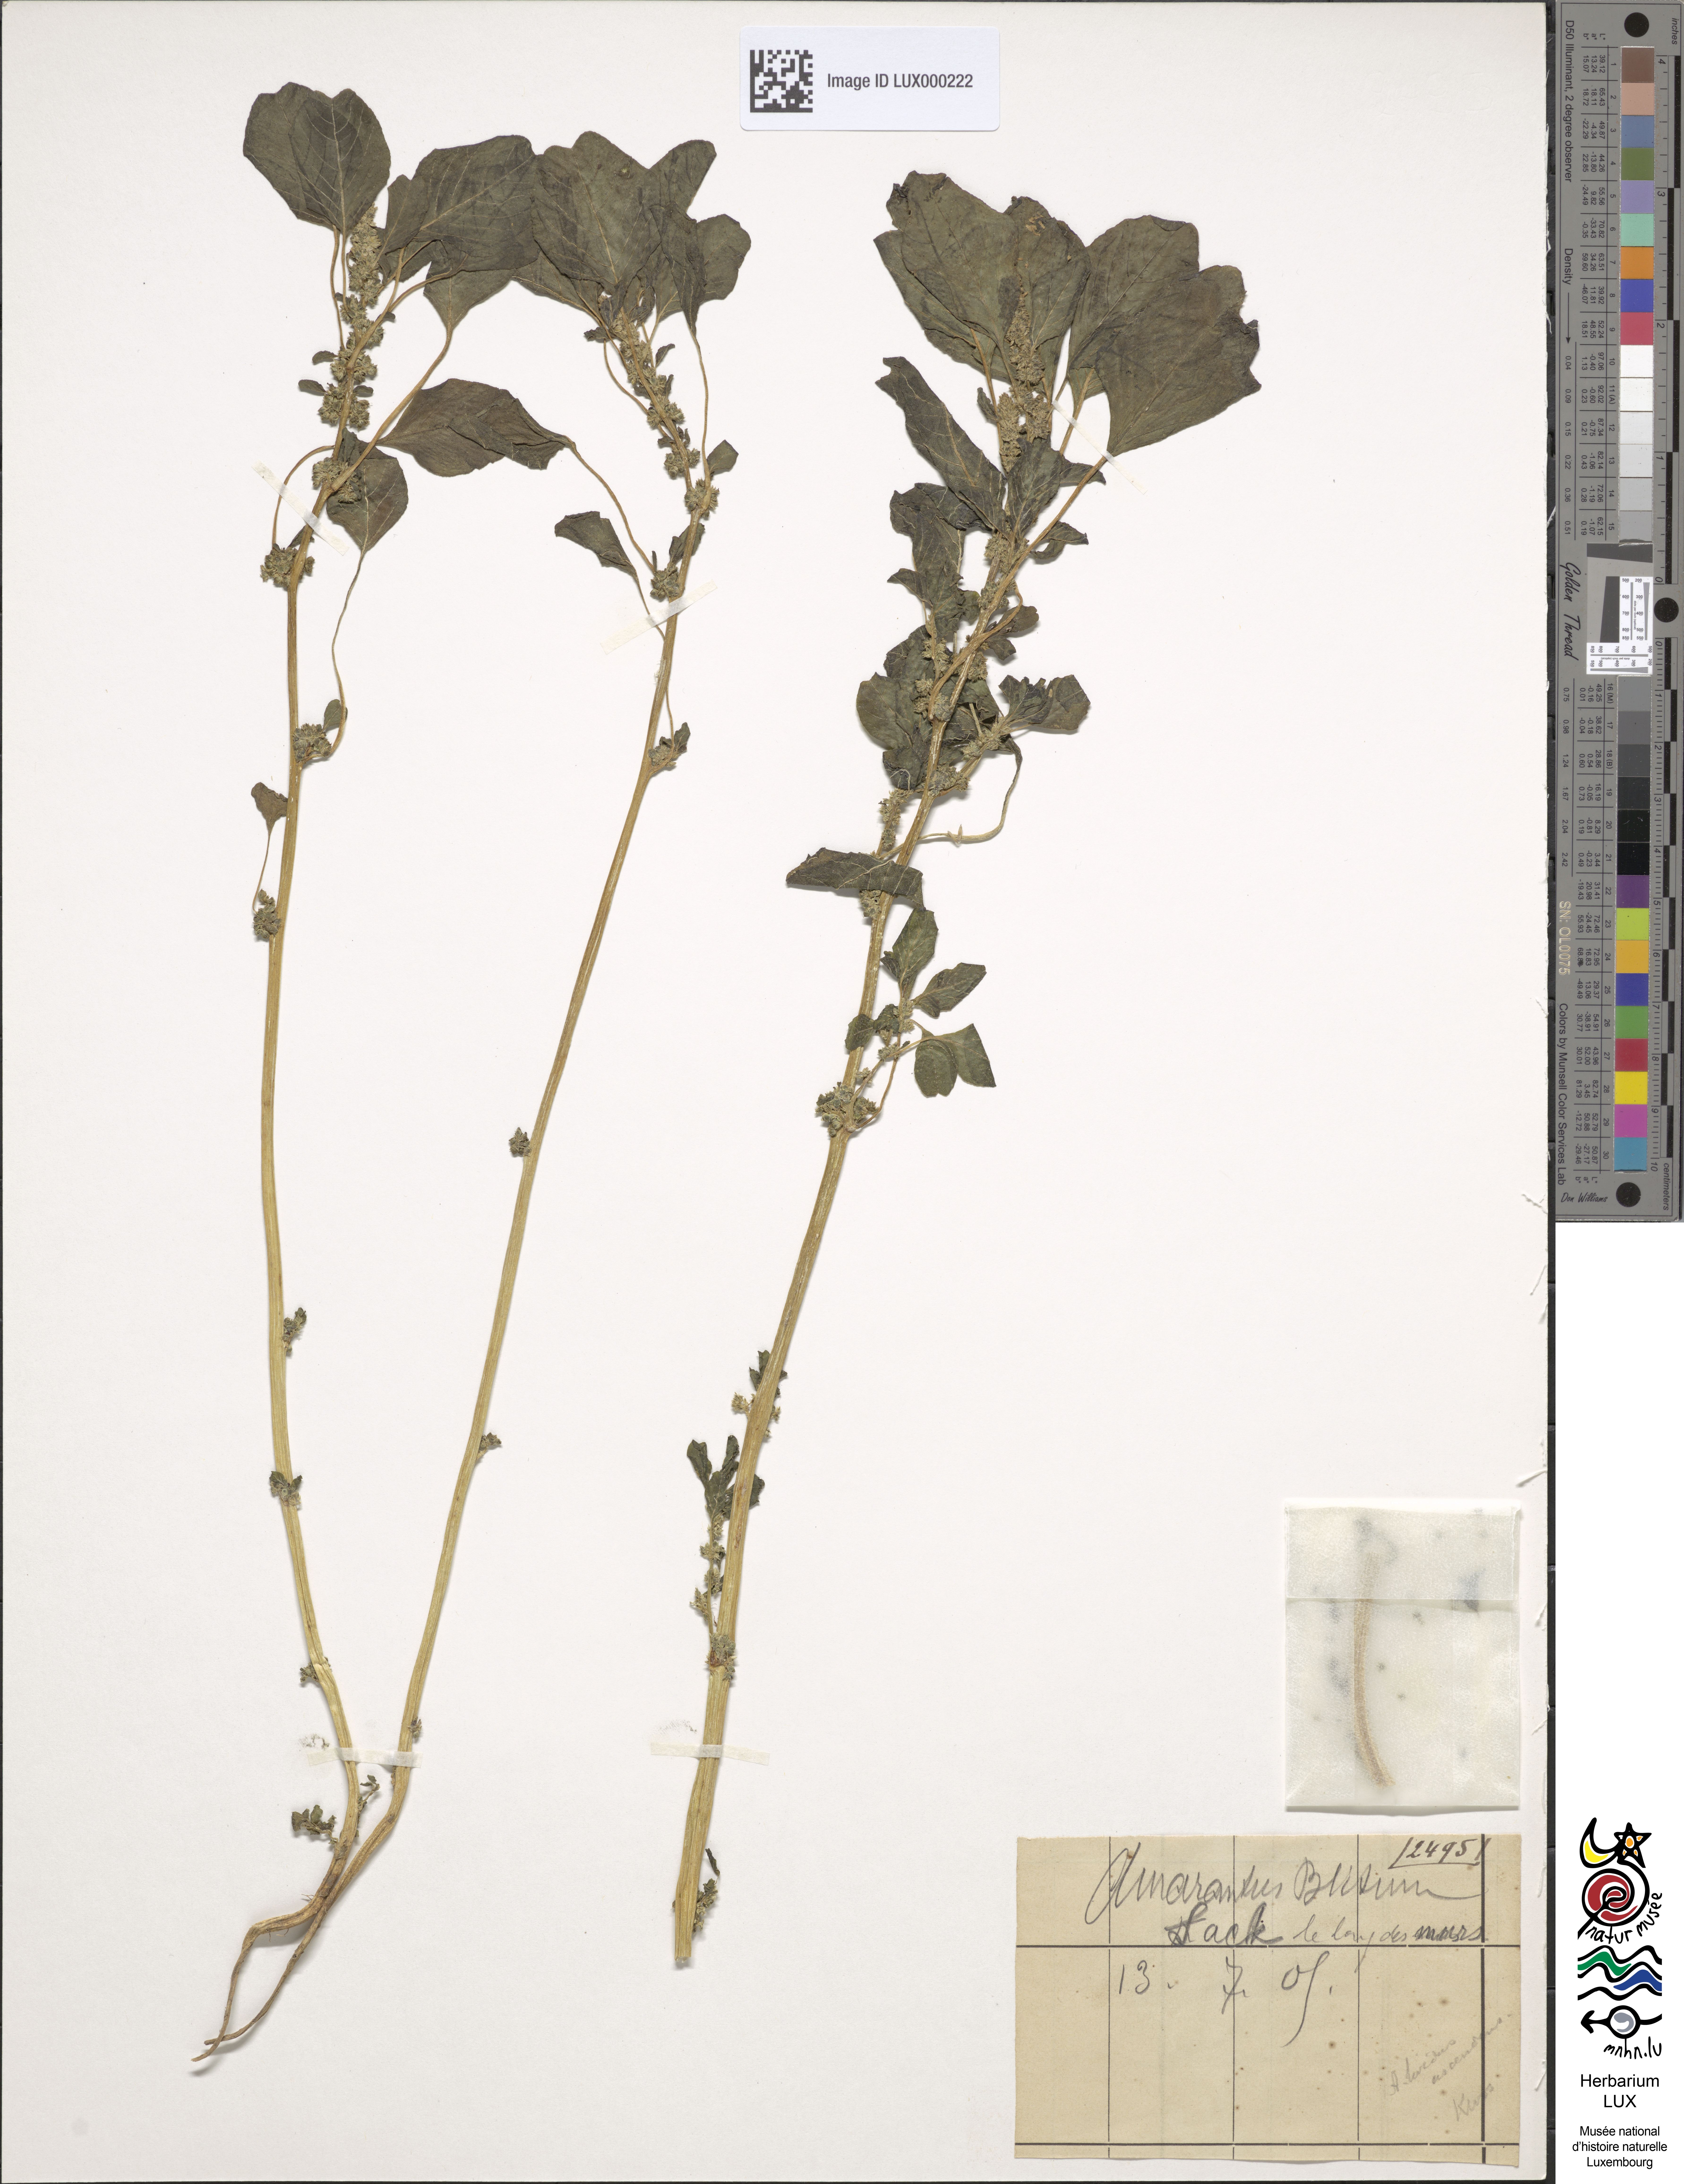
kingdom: Plantae
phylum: Tracheophyta
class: Magnoliopsida
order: Caryophyllales
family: Amaranthaceae
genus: Amaranthus
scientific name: Amaranthus blitum
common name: Purple amaranth
